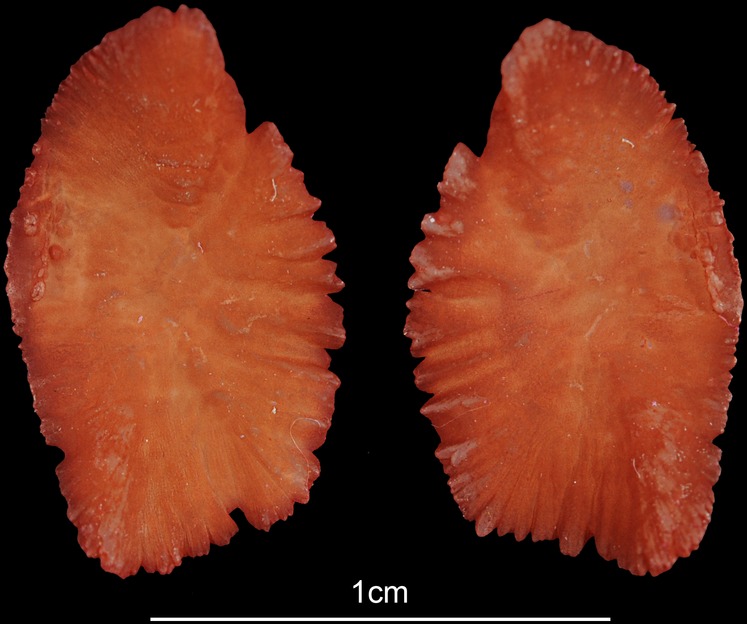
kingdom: Animalia
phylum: Chordata
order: Perciformes
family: Sparidae
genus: Chrysoblephus
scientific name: Chrysoblephus laticeps
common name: Roman seabream
